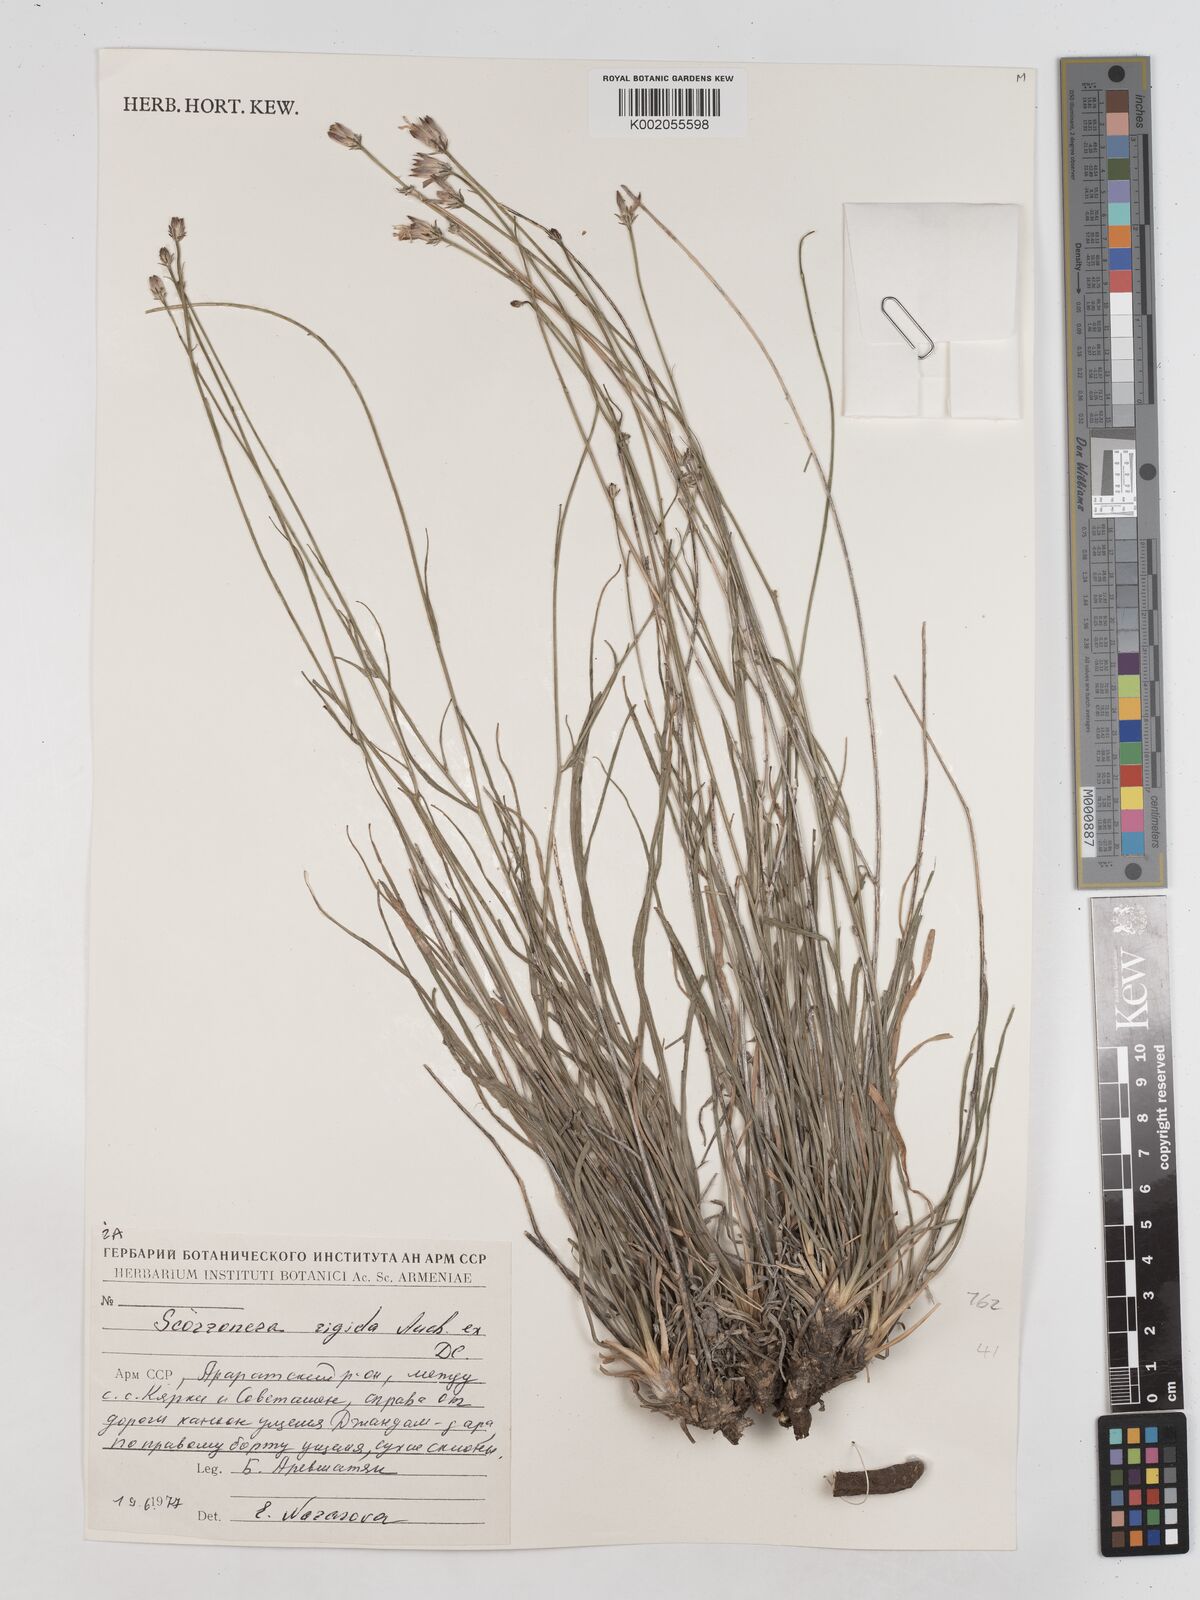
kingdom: Plantae
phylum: Tracheophyta
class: Magnoliopsida
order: Asterales
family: Asteraceae
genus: Goekyighitia
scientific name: Goekyighitia rigida
